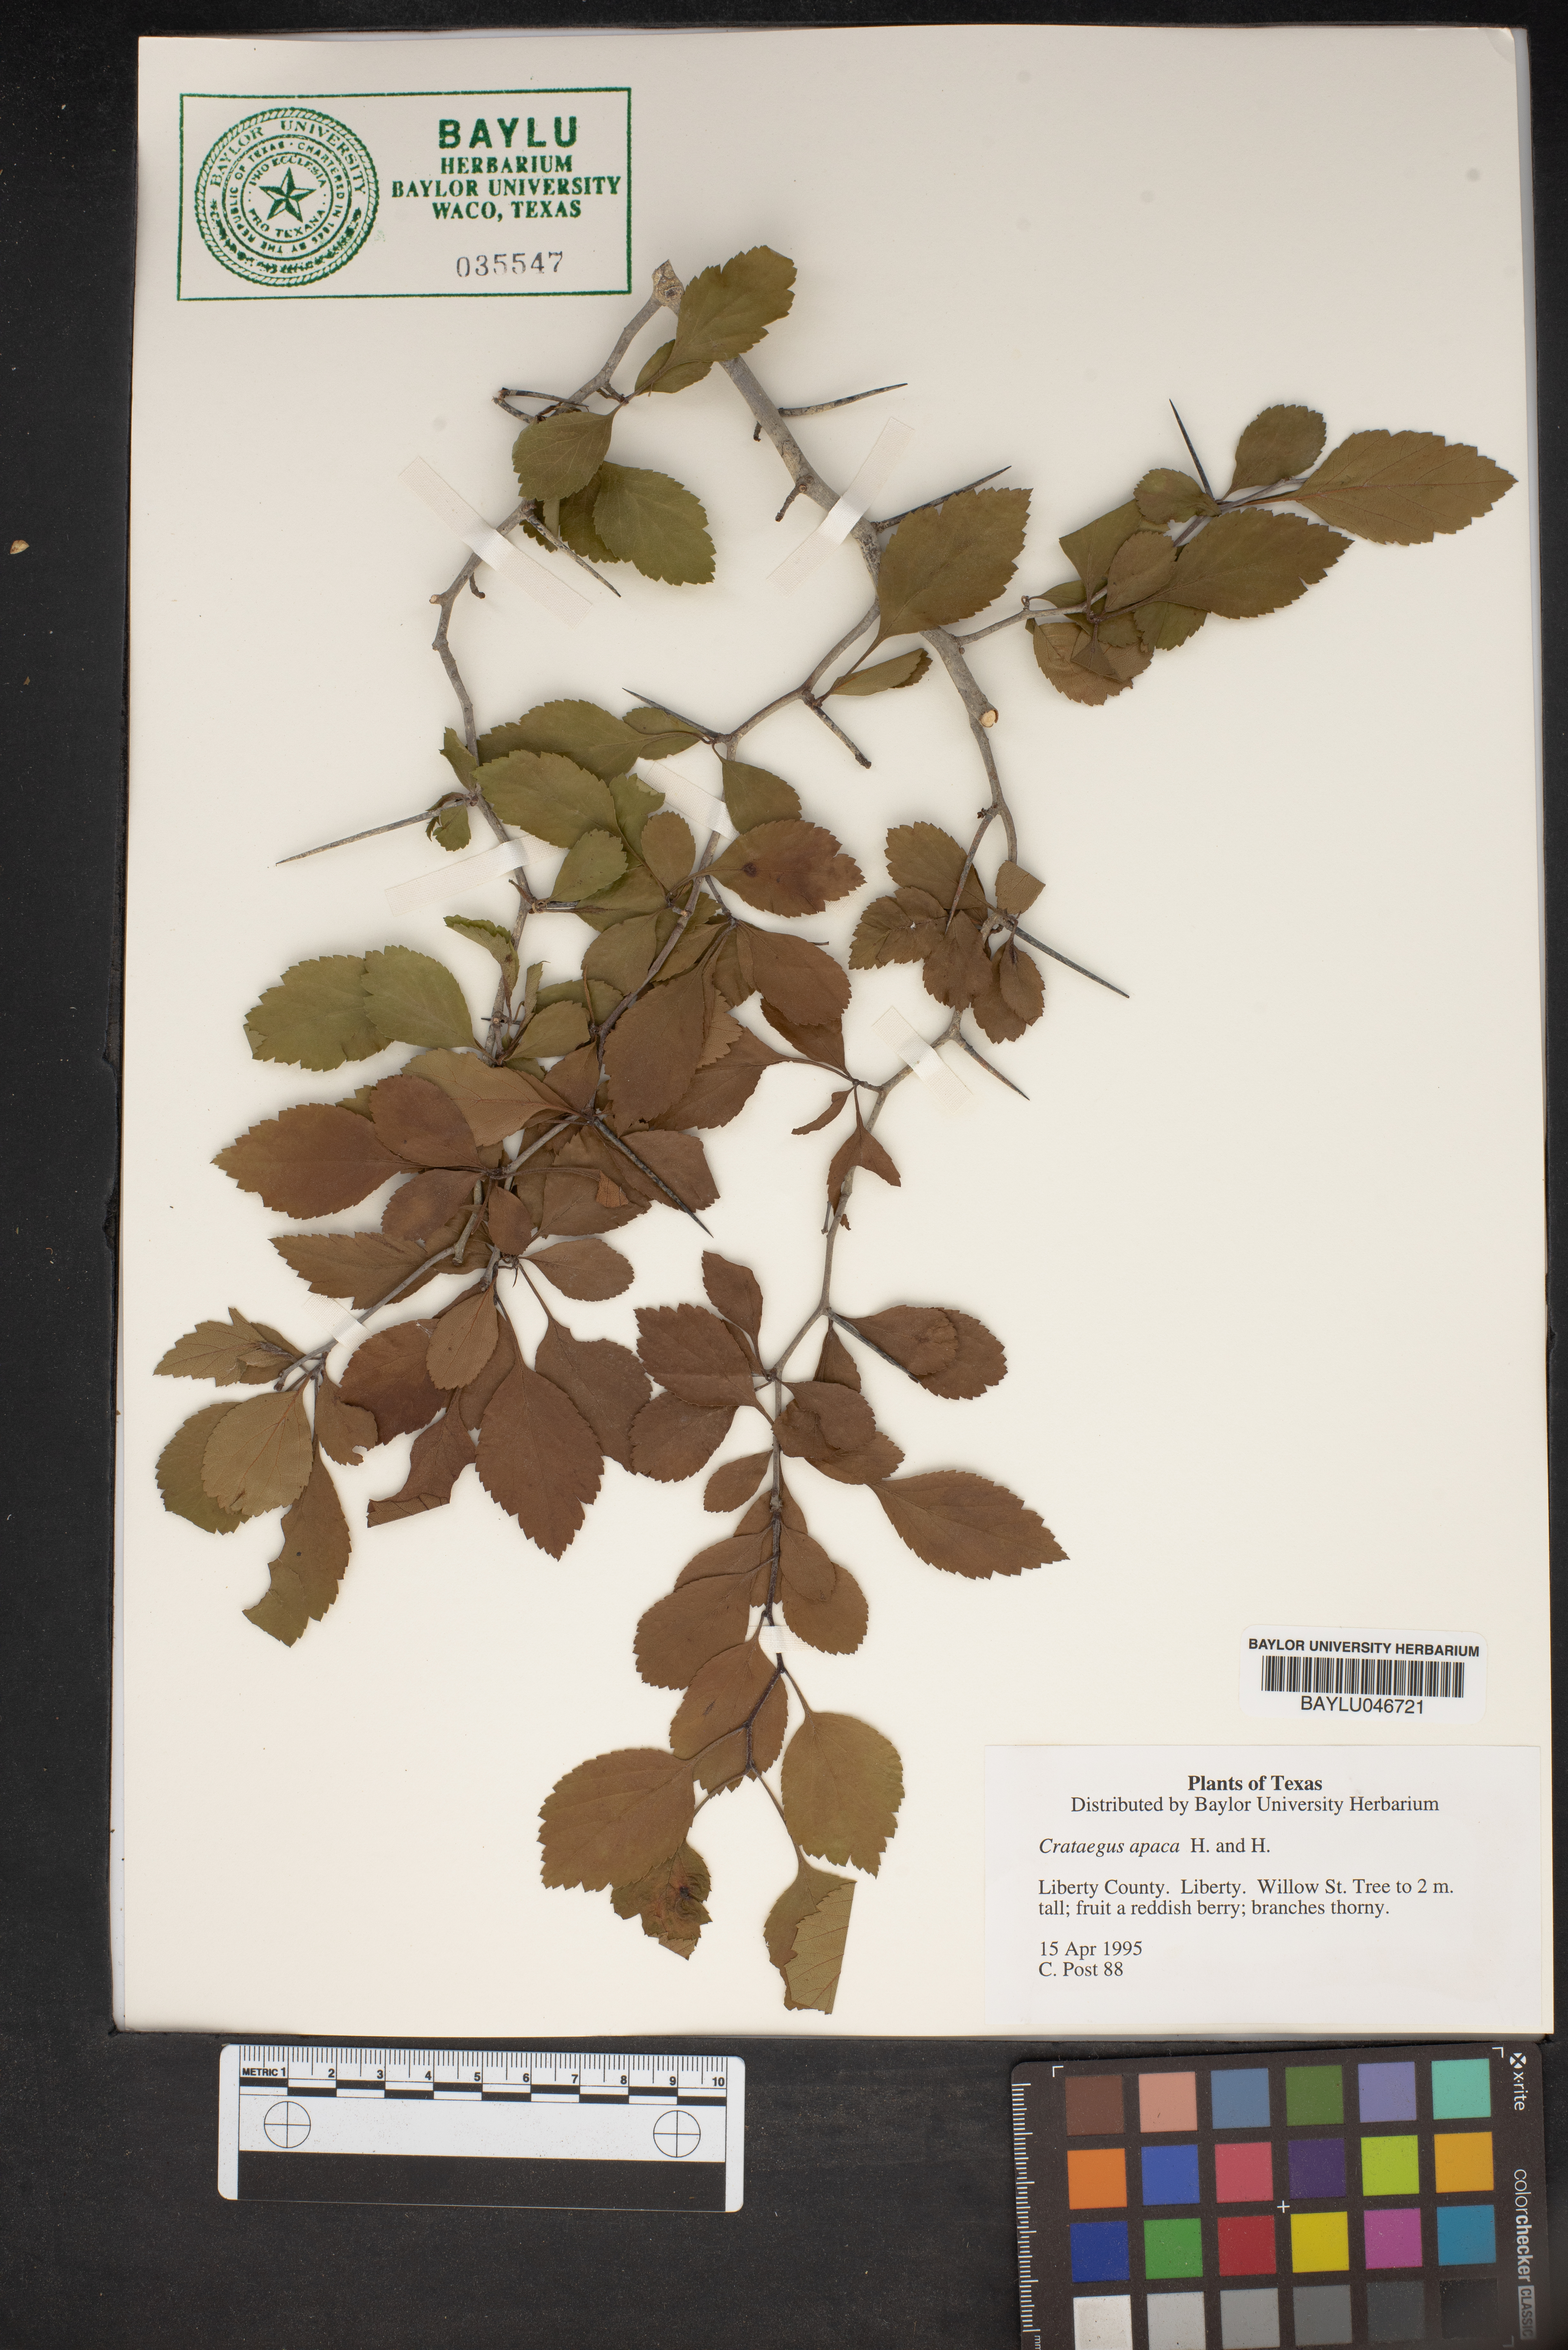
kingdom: Plantae
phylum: Tracheophyta
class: Magnoliopsida
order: Rosales
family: Rosaceae
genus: Crataegus
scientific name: Crataegus
